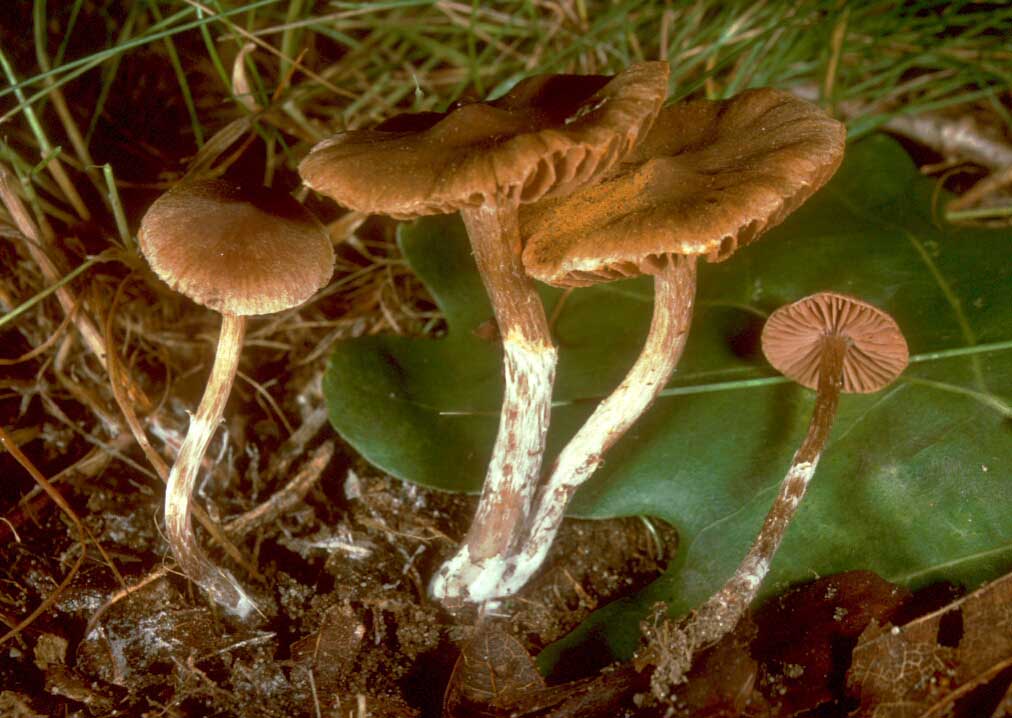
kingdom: Fungi
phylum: Basidiomycota
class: Agaricomycetes
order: Agaricales
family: Cortinariaceae
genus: Cortinarius
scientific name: Cortinarius parvannulatus
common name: krave-slørhat
